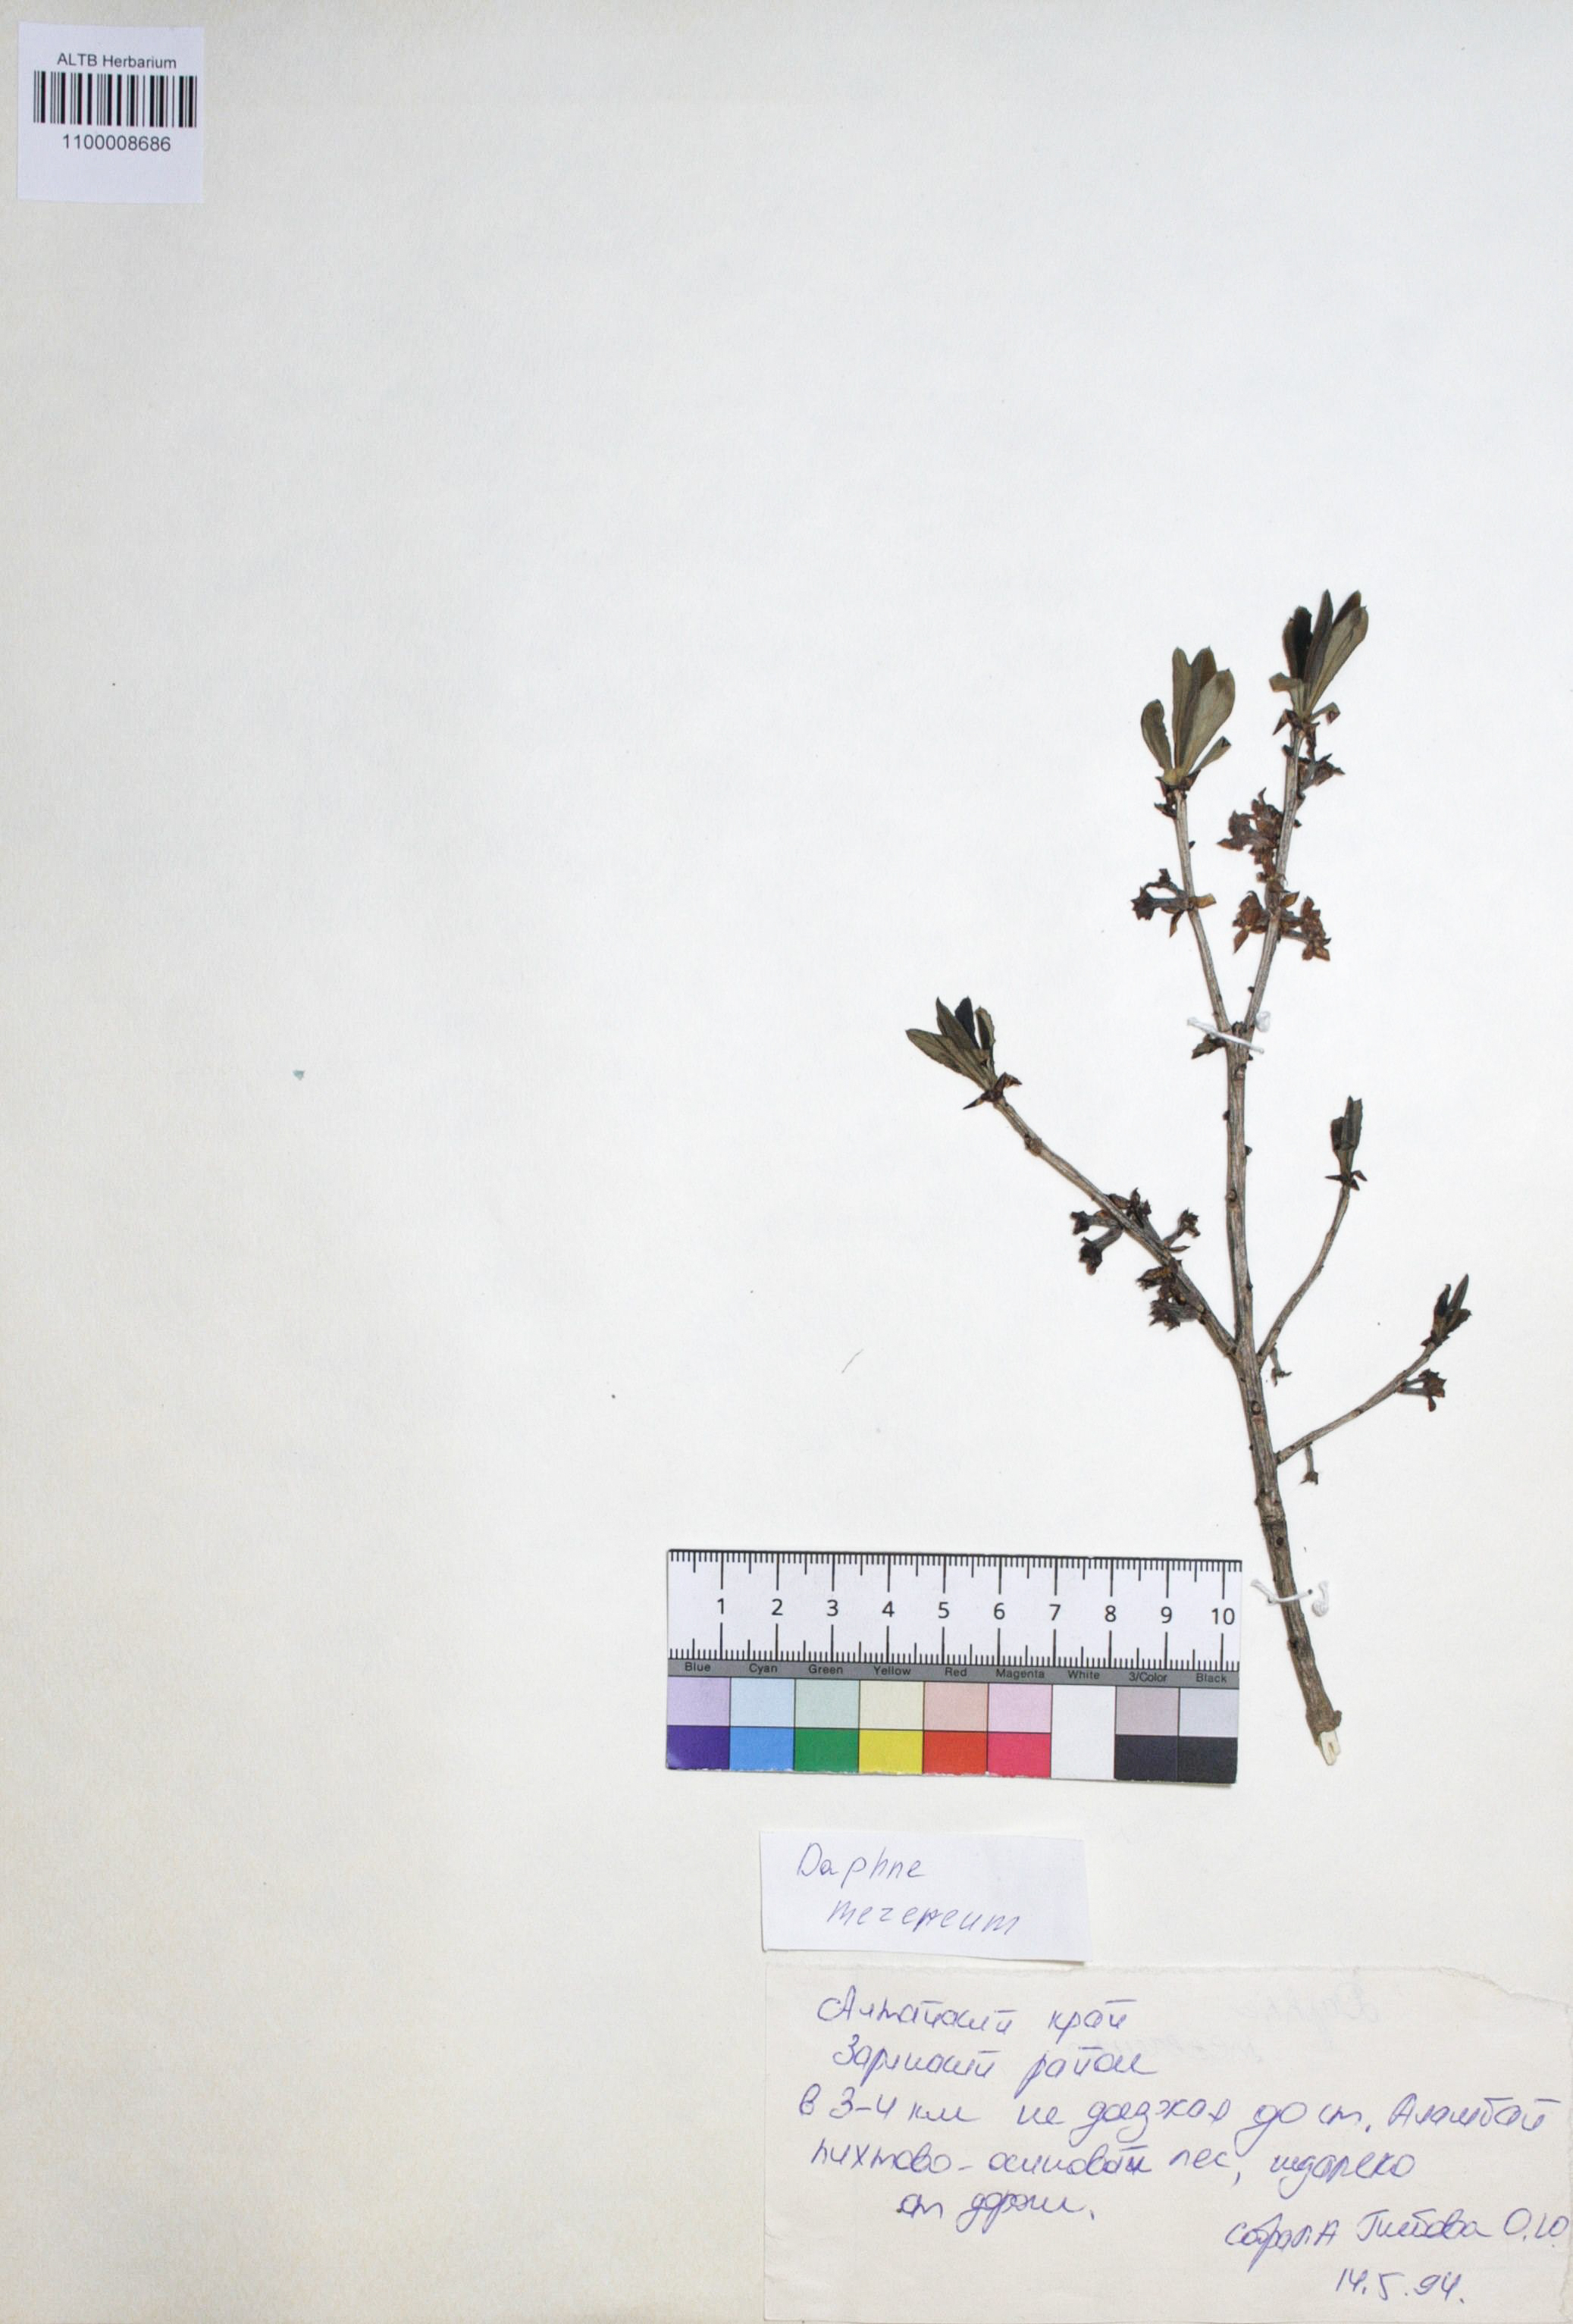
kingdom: Plantae
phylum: Tracheophyta
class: Magnoliopsida
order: Malvales
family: Thymelaeaceae
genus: Daphne
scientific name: Daphne mezereum
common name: Mezereon
